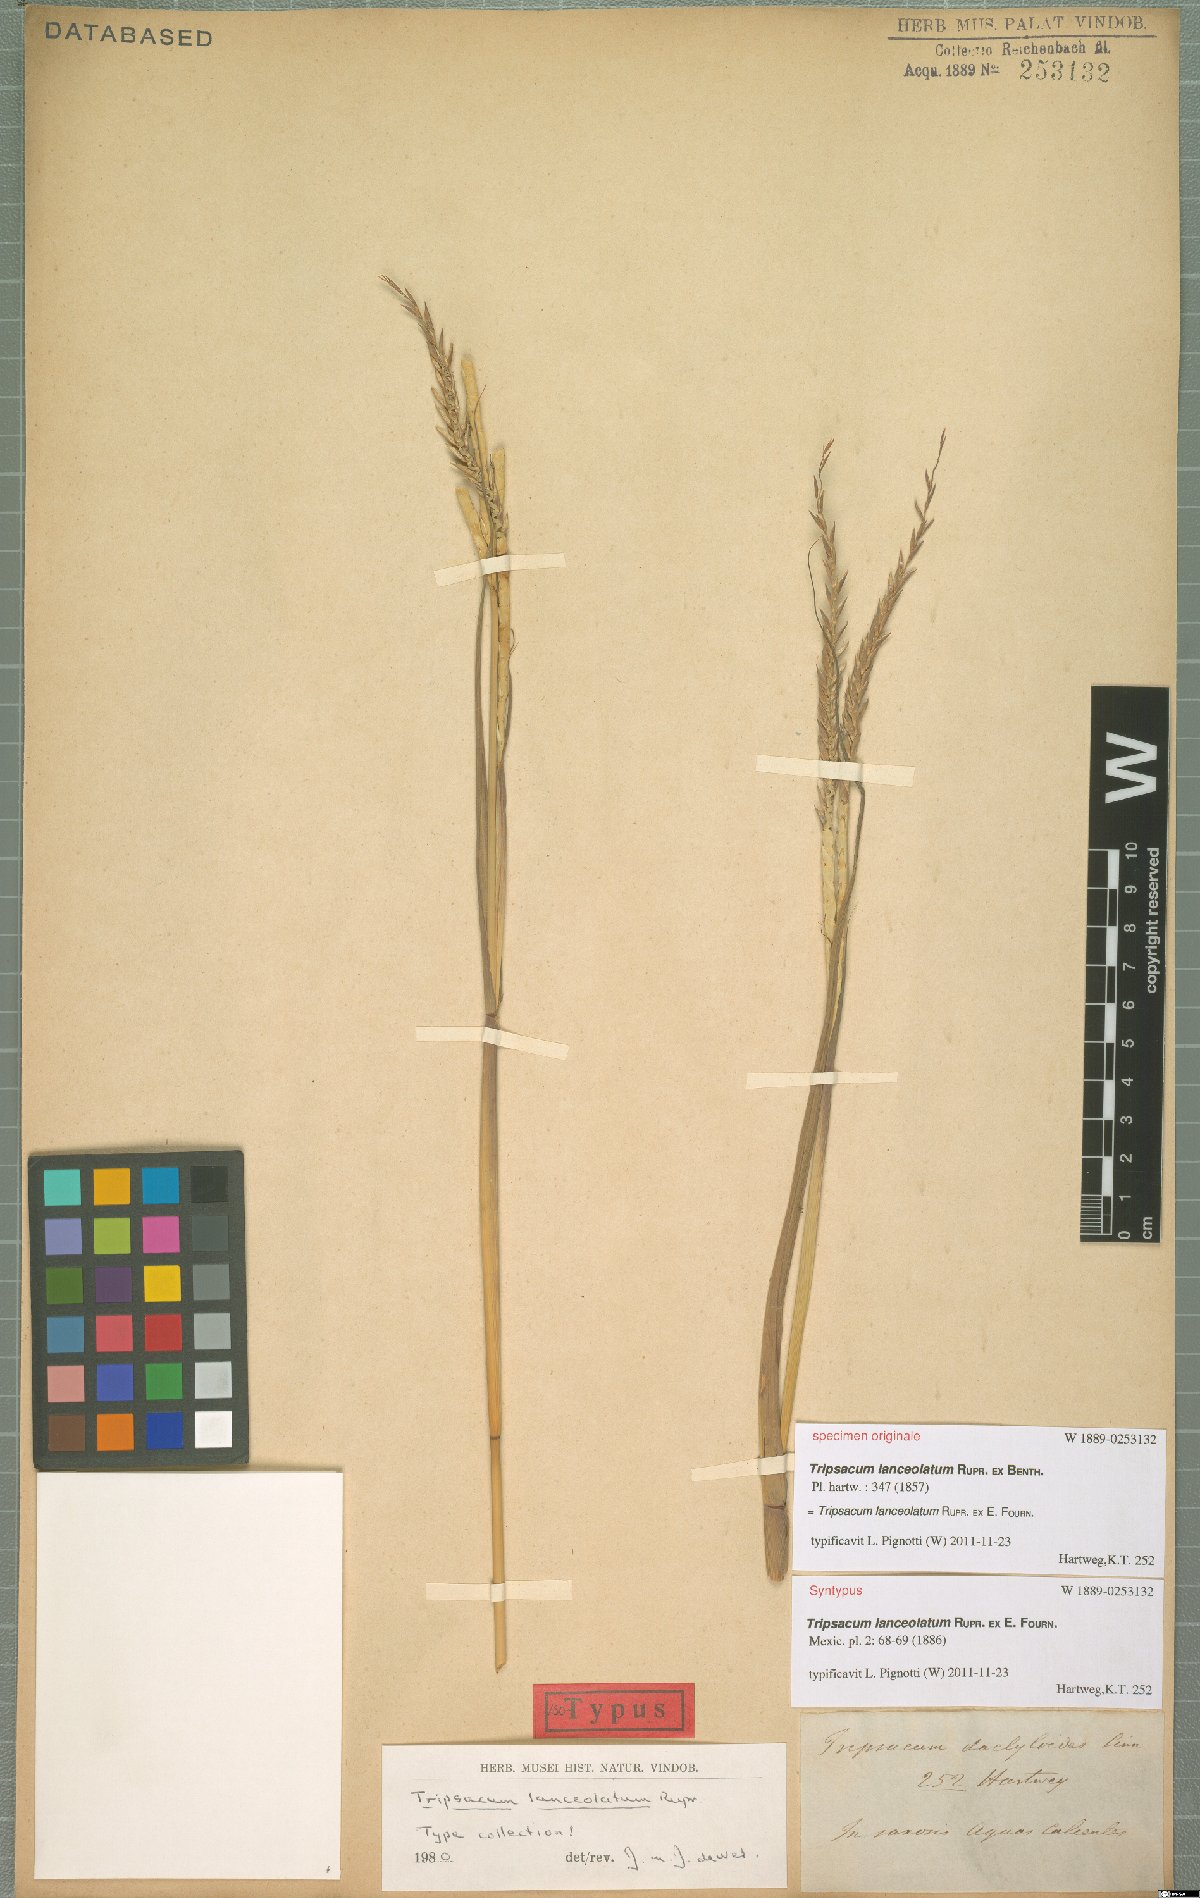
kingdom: Plantae
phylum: Tracheophyta
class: Liliopsida
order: Poales
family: Poaceae
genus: Tripsacum
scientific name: Tripsacum lanceolatum
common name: Mexican gama grass
